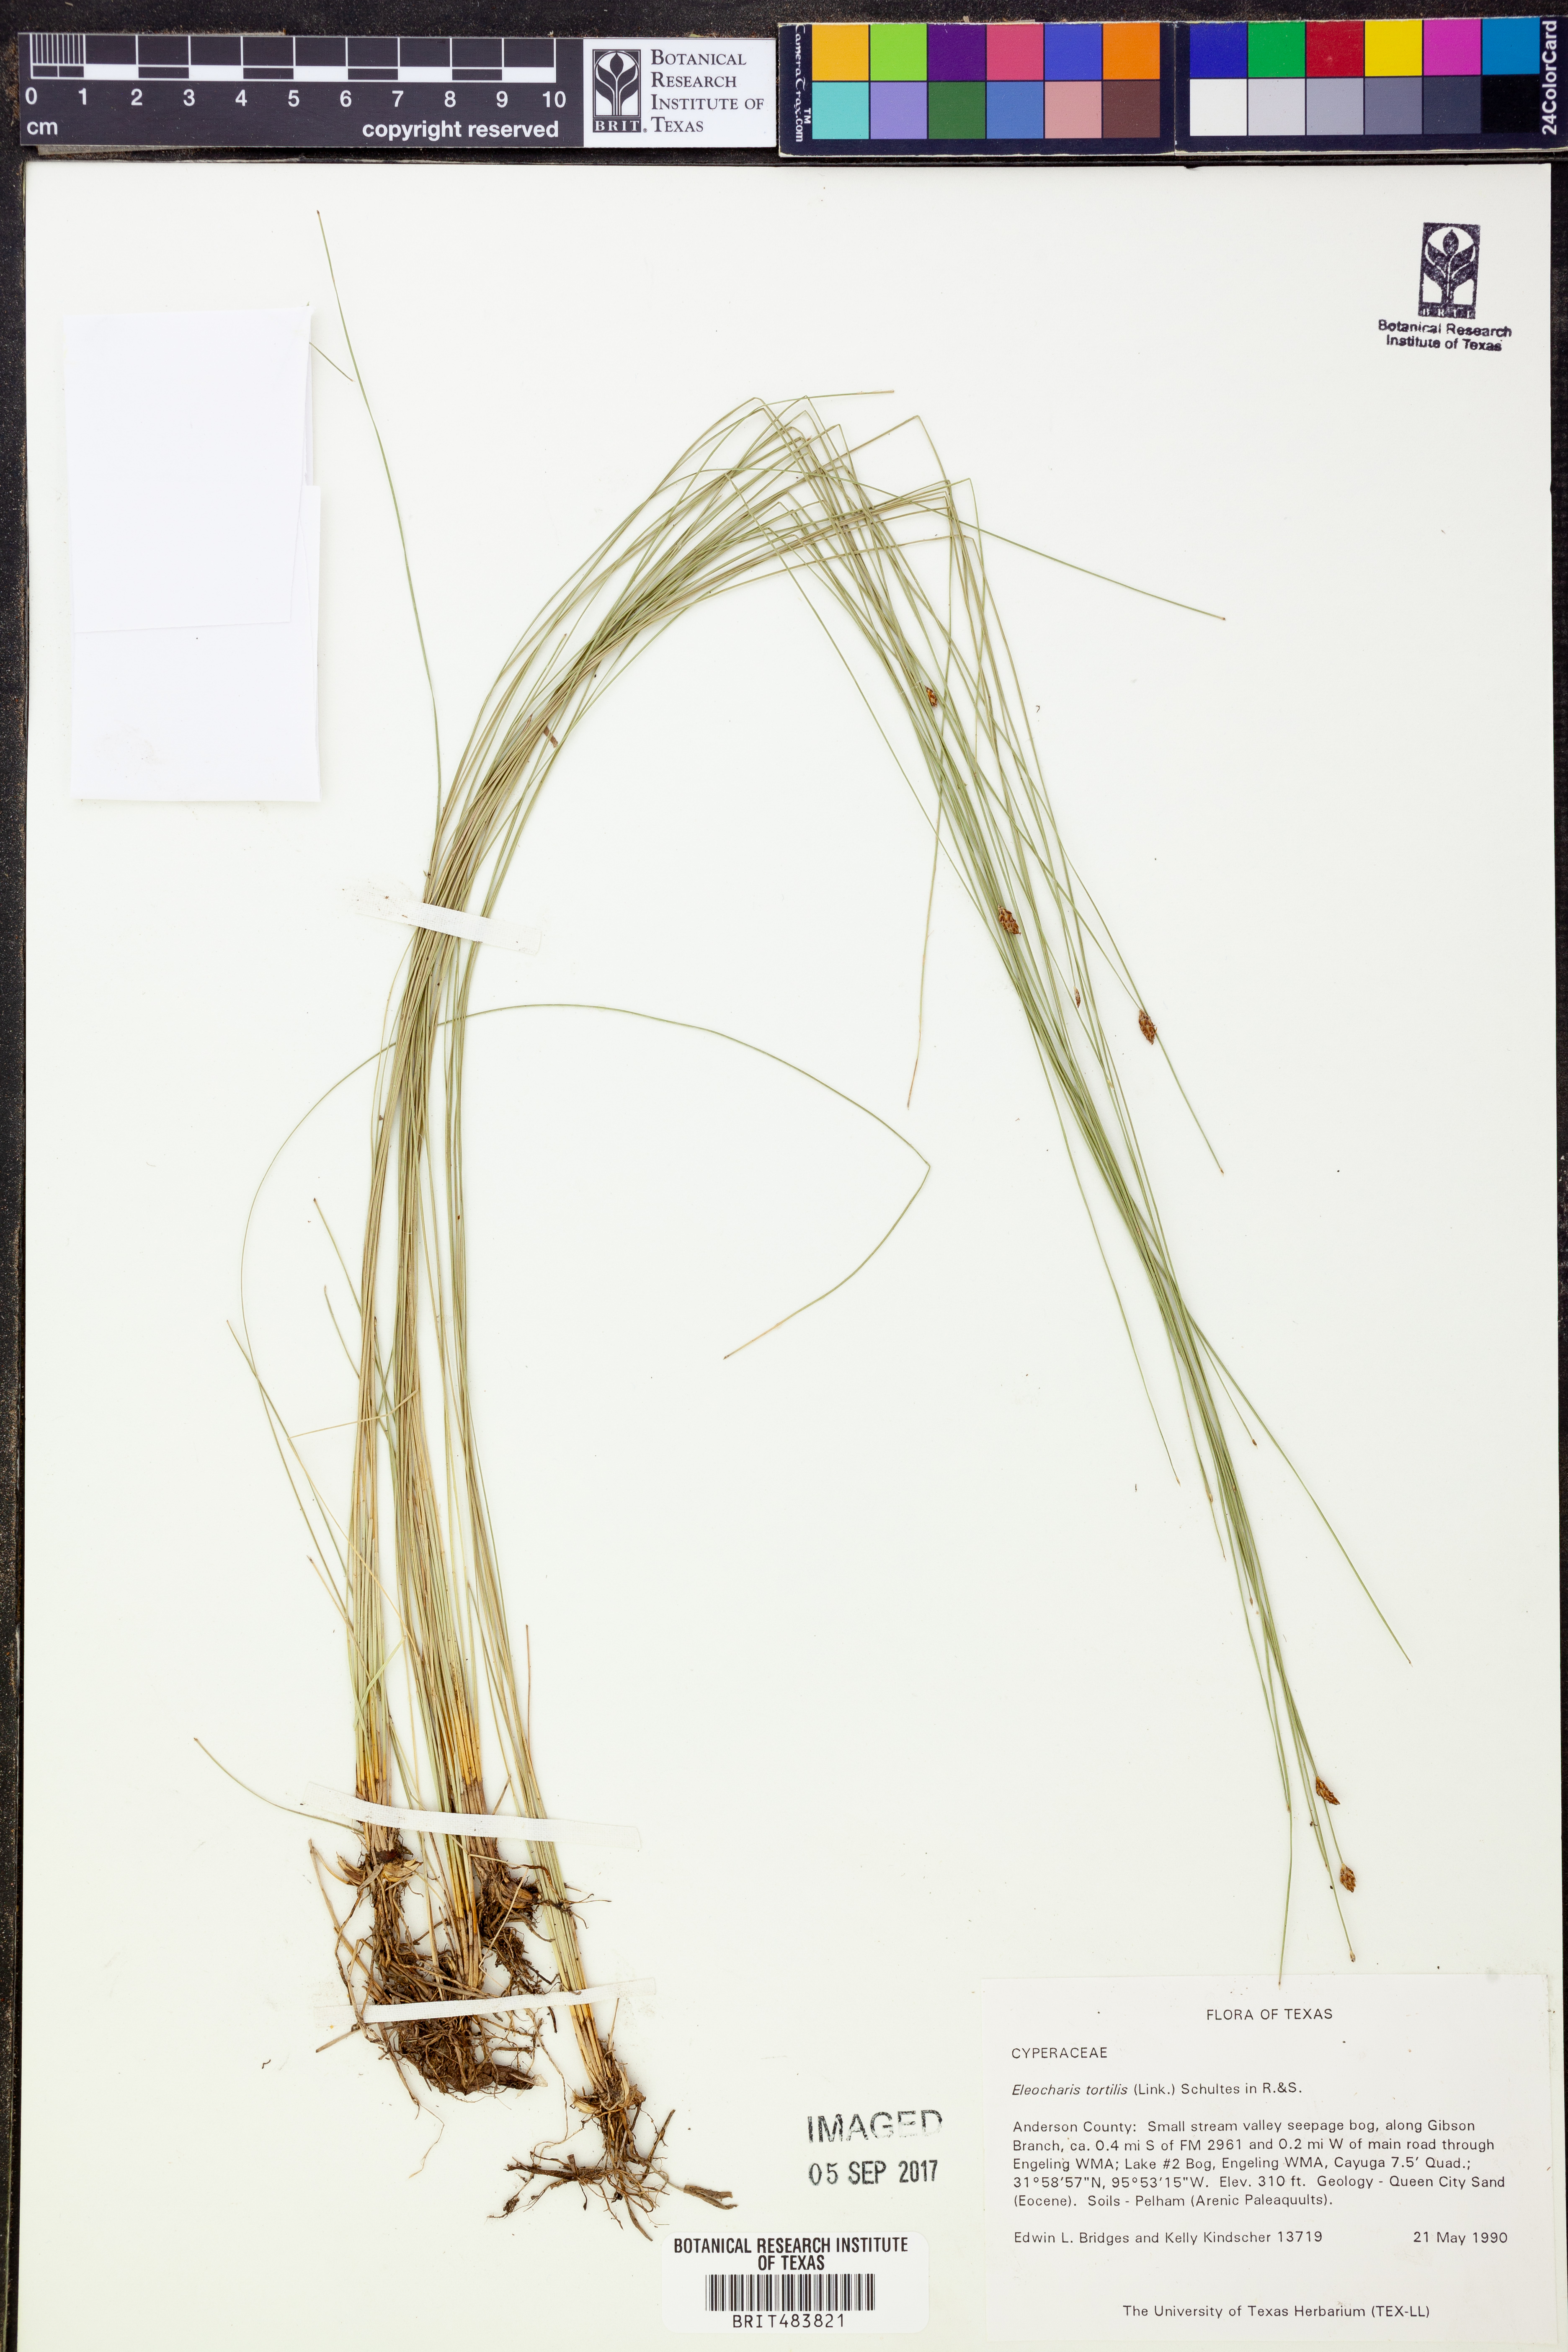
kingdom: Plantae
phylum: Tracheophyta
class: Liliopsida
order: Poales
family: Cyperaceae
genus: Eleocharis
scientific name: Eleocharis tortilis
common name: Twisted spike sedge
